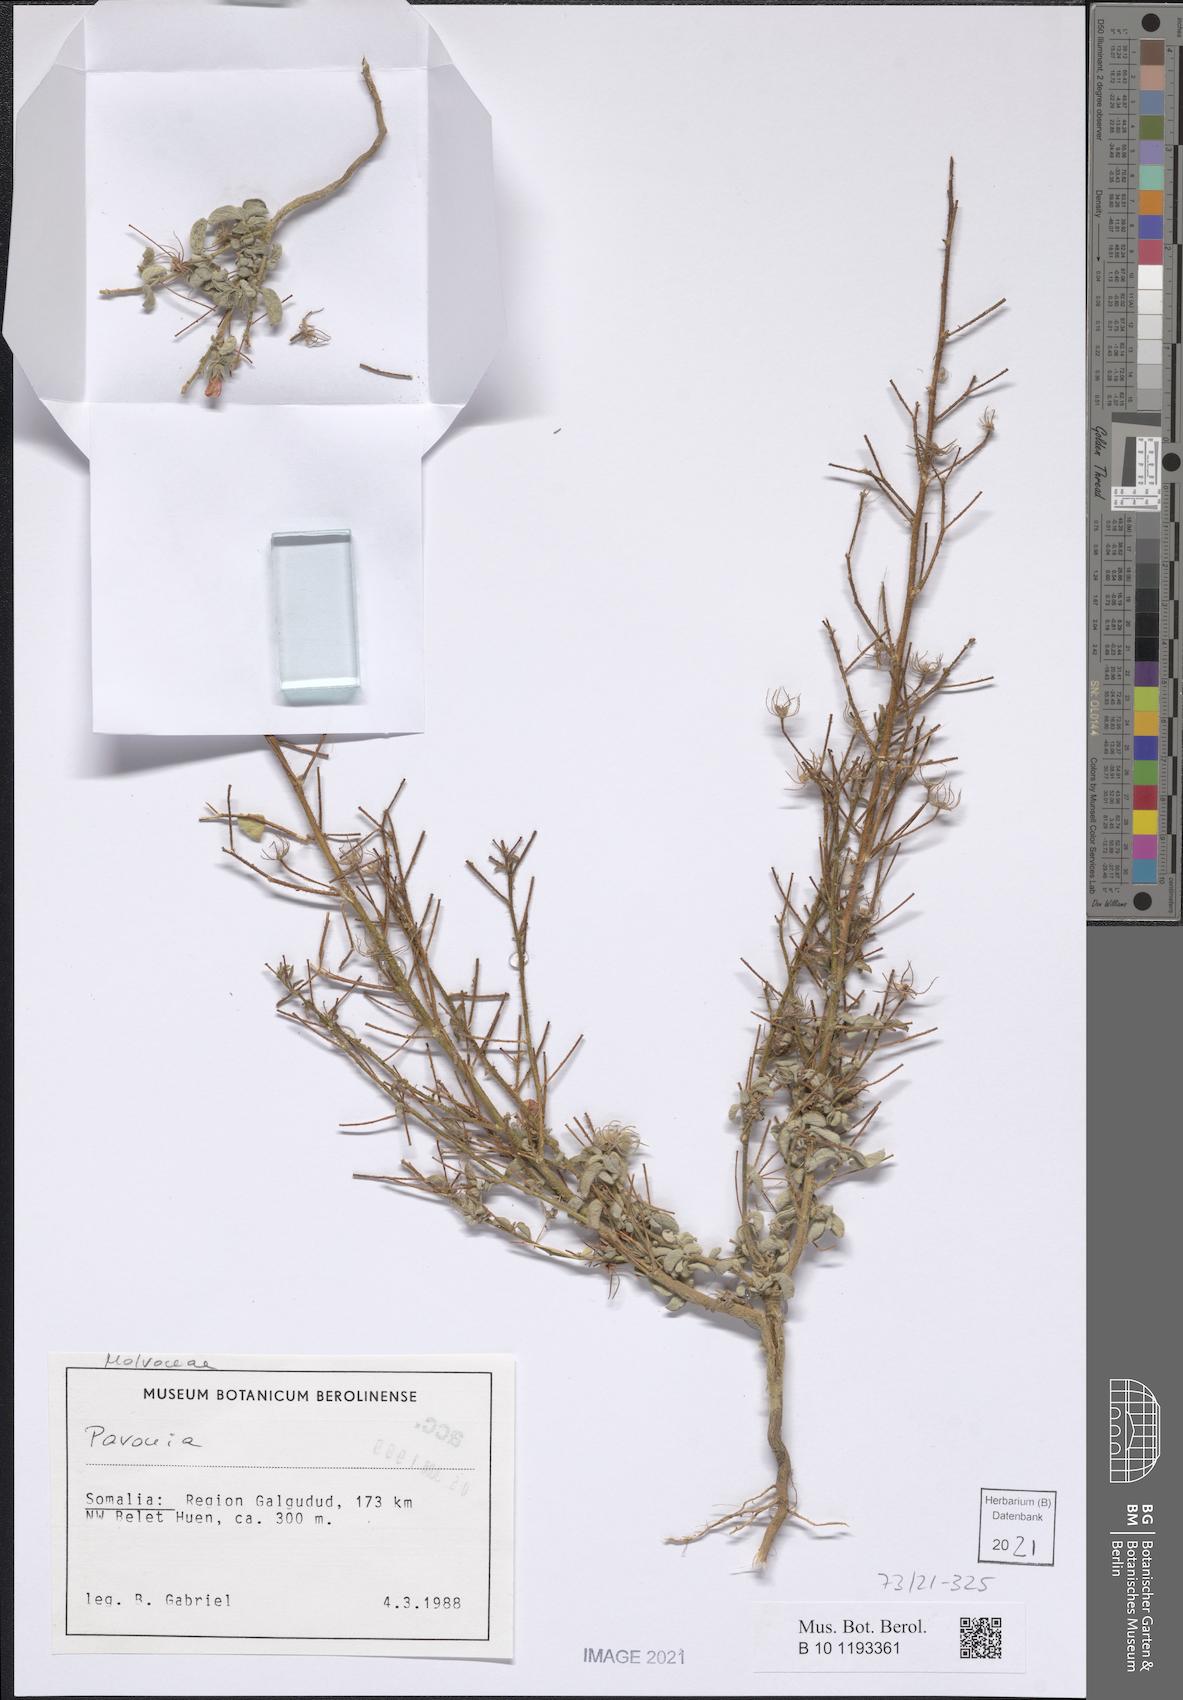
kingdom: Plantae
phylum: Tracheophyta
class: Magnoliopsida
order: Malvales
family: Malvaceae
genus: Pavonia
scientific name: Pavonia arabica
